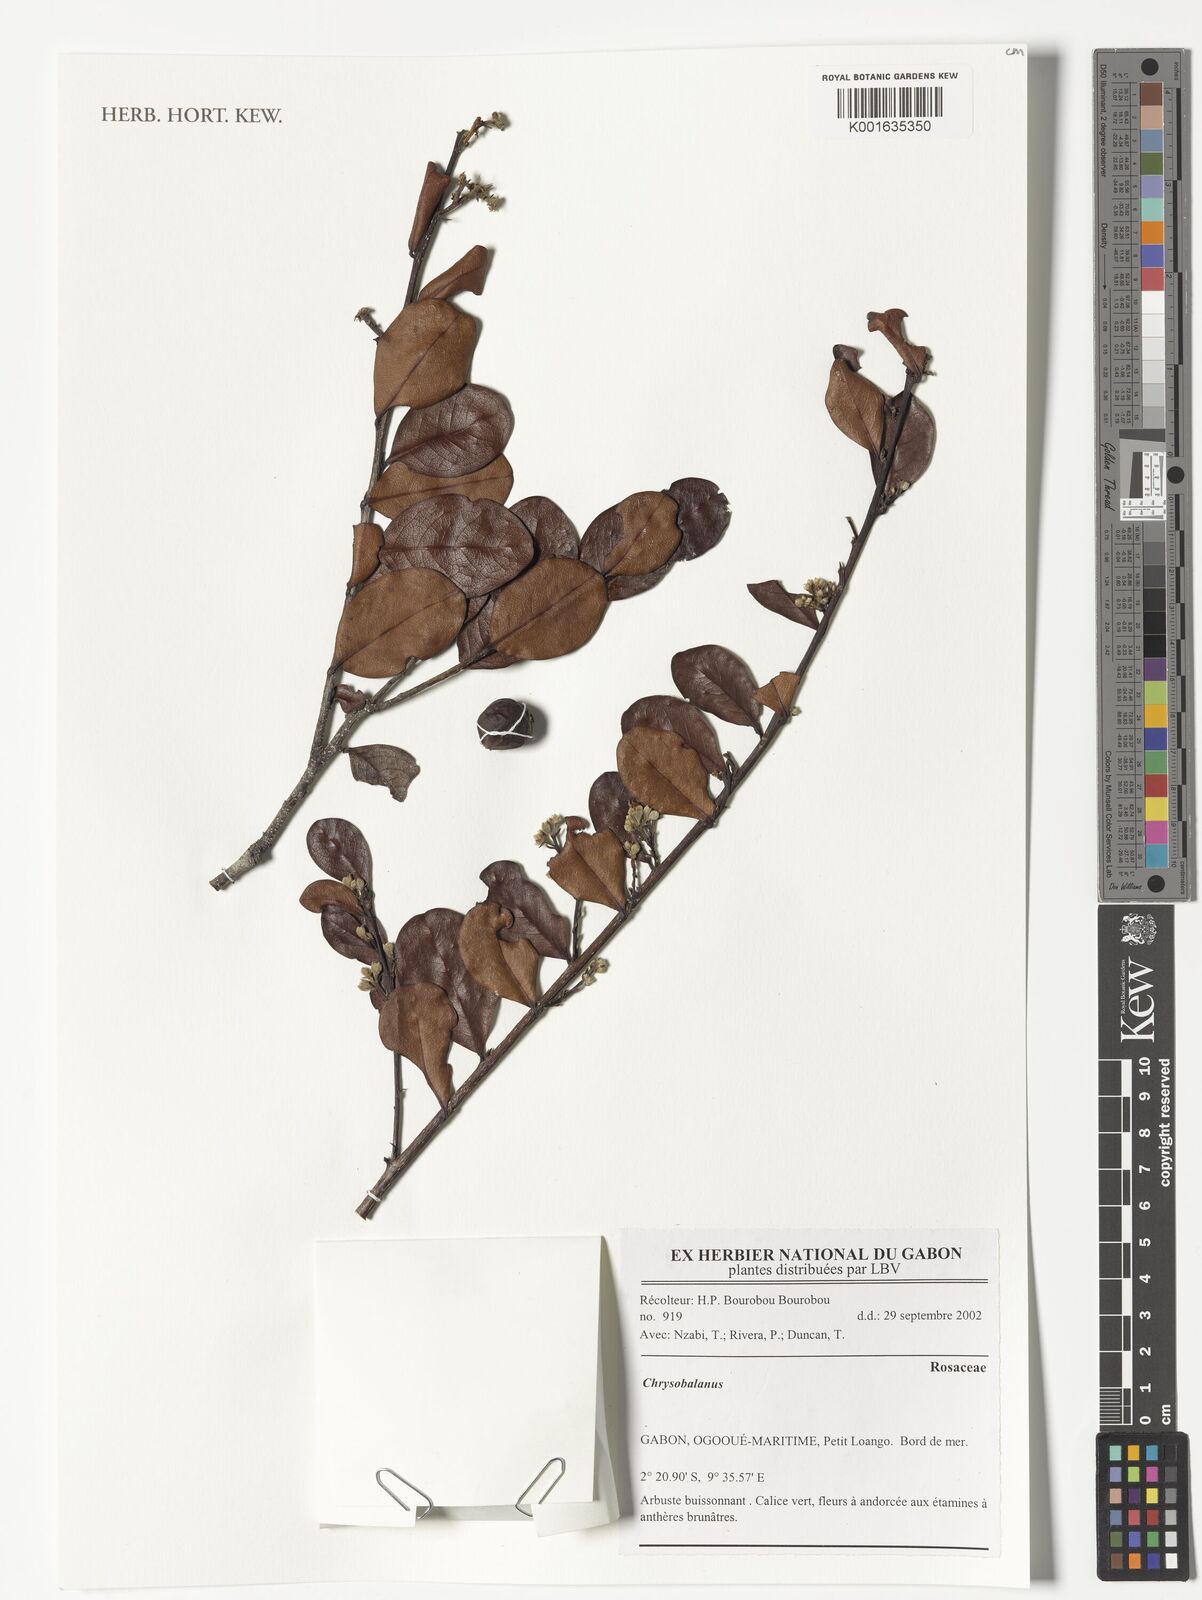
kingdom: Plantae
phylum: Tracheophyta
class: Magnoliopsida
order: Malpighiales
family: Chrysobalanaceae
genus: Chrysobalanus
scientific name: Chrysobalanus
